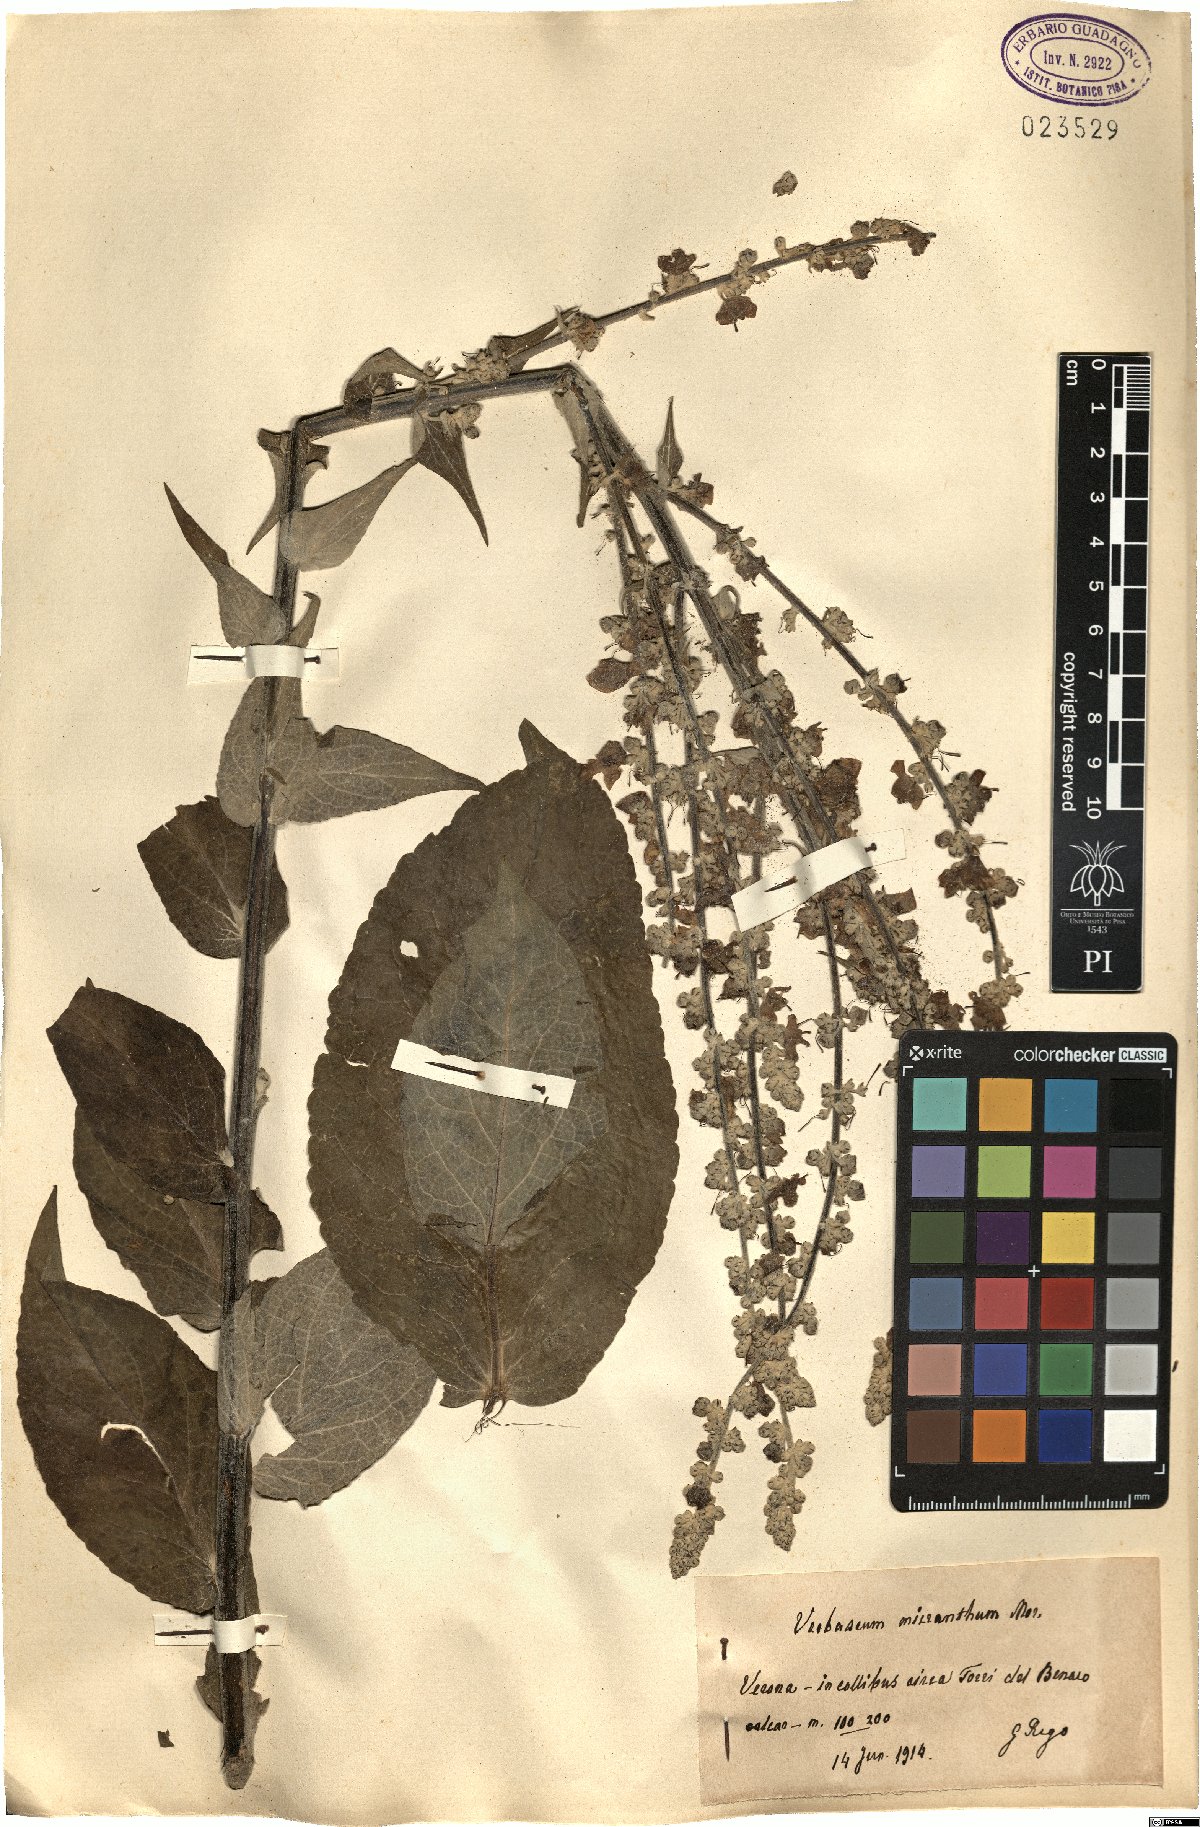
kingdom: Plantae
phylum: Tracheophyta
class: Magnoliopsida
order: Lamiales
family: Scrophulariaceae
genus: Verbascum
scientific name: Verbascum lychnitis
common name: White mullein
